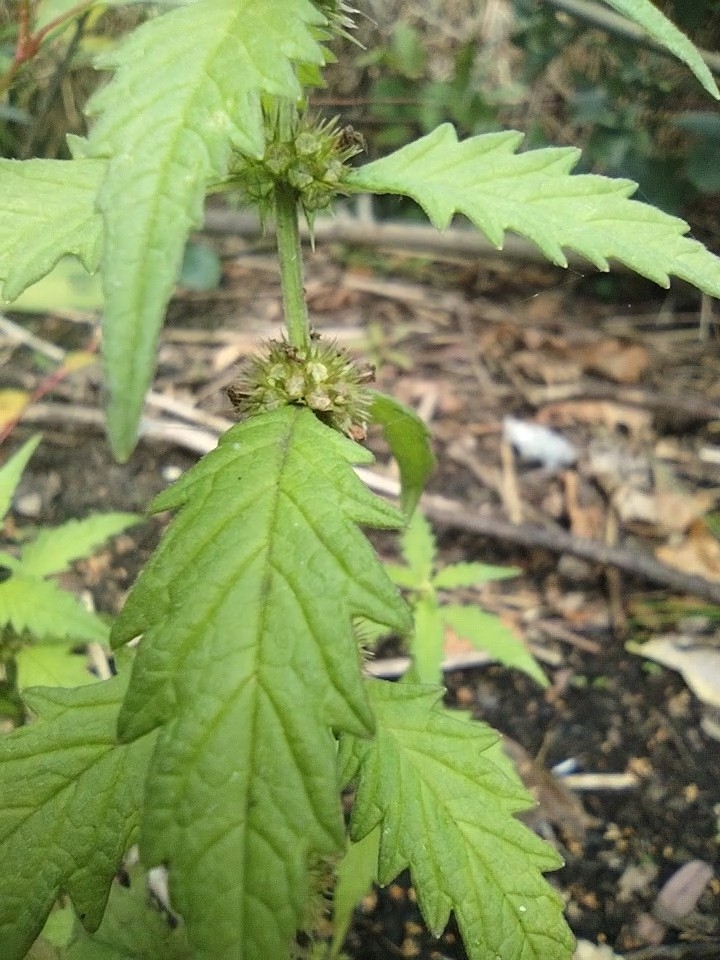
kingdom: Plantae
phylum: Tracheophyta
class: Magnoliopsida
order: Lamiales
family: Lamiaceae
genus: Lycopus
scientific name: Lycopus europaeus
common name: Sværtevæld
